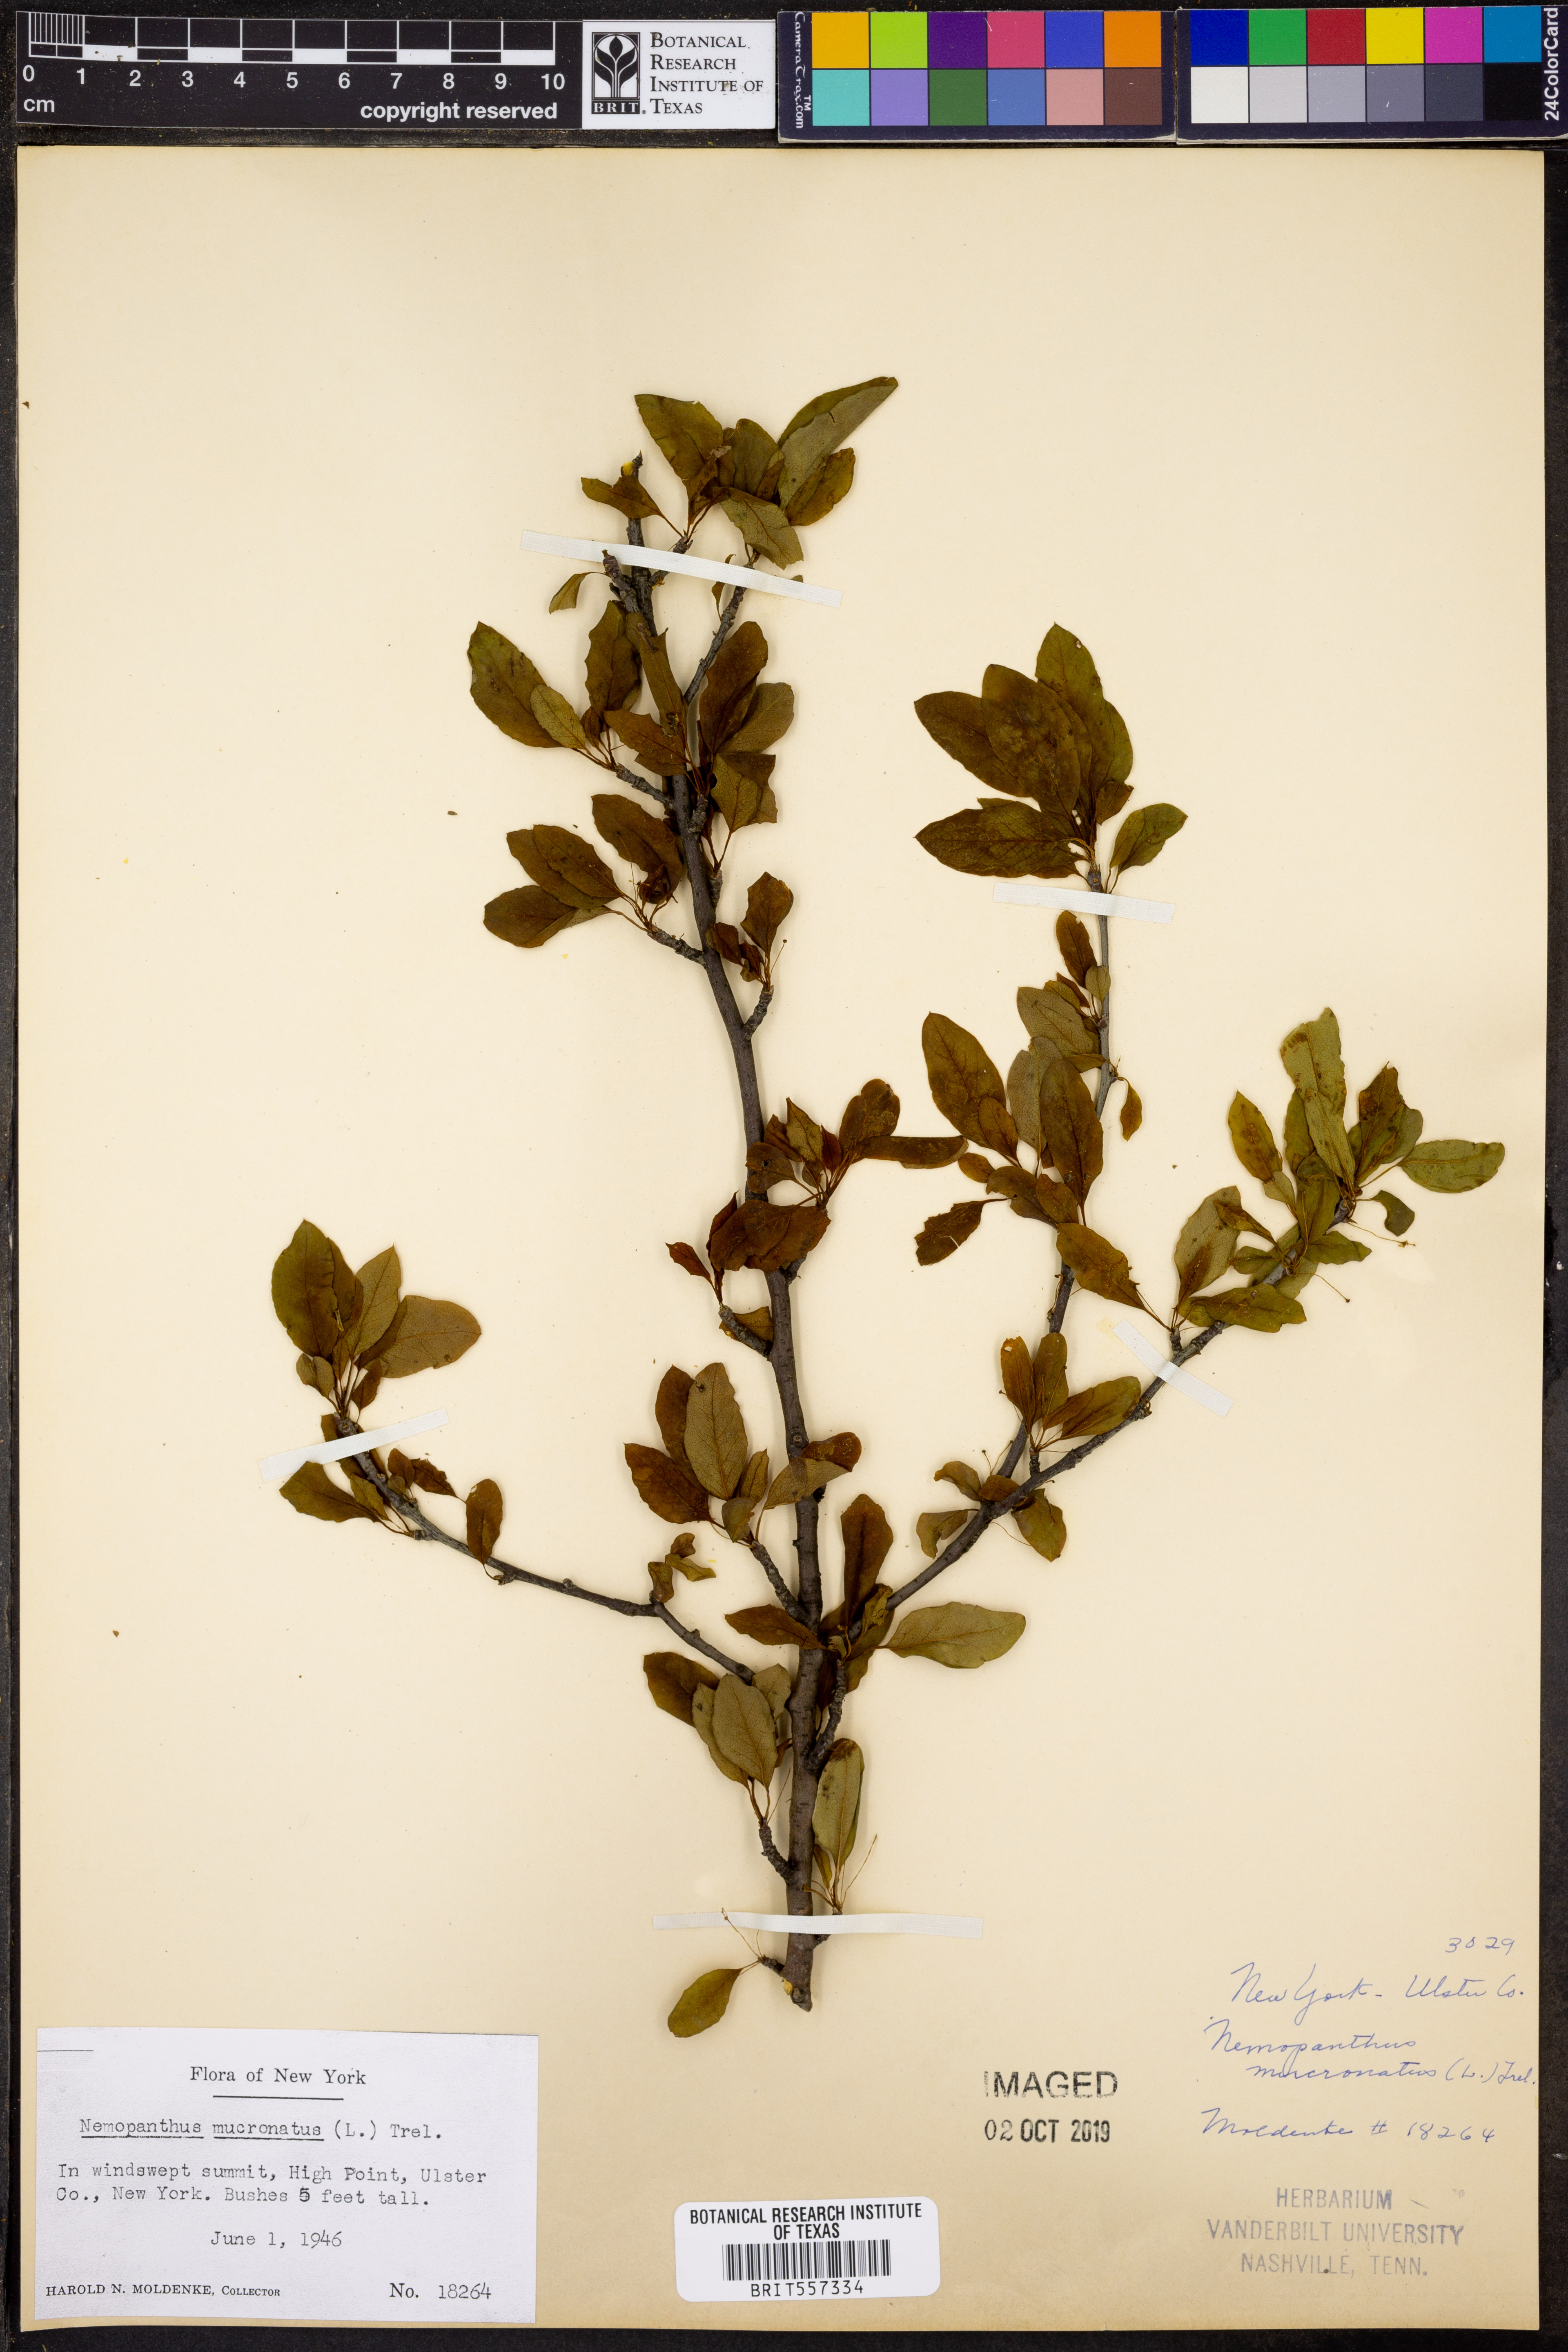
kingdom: Plantae
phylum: Tracheophyta
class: Magnoliopsida
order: Aquifoliales
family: Aquifoliaceae
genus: Ilex
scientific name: Ilex mucronata
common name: Catberry
